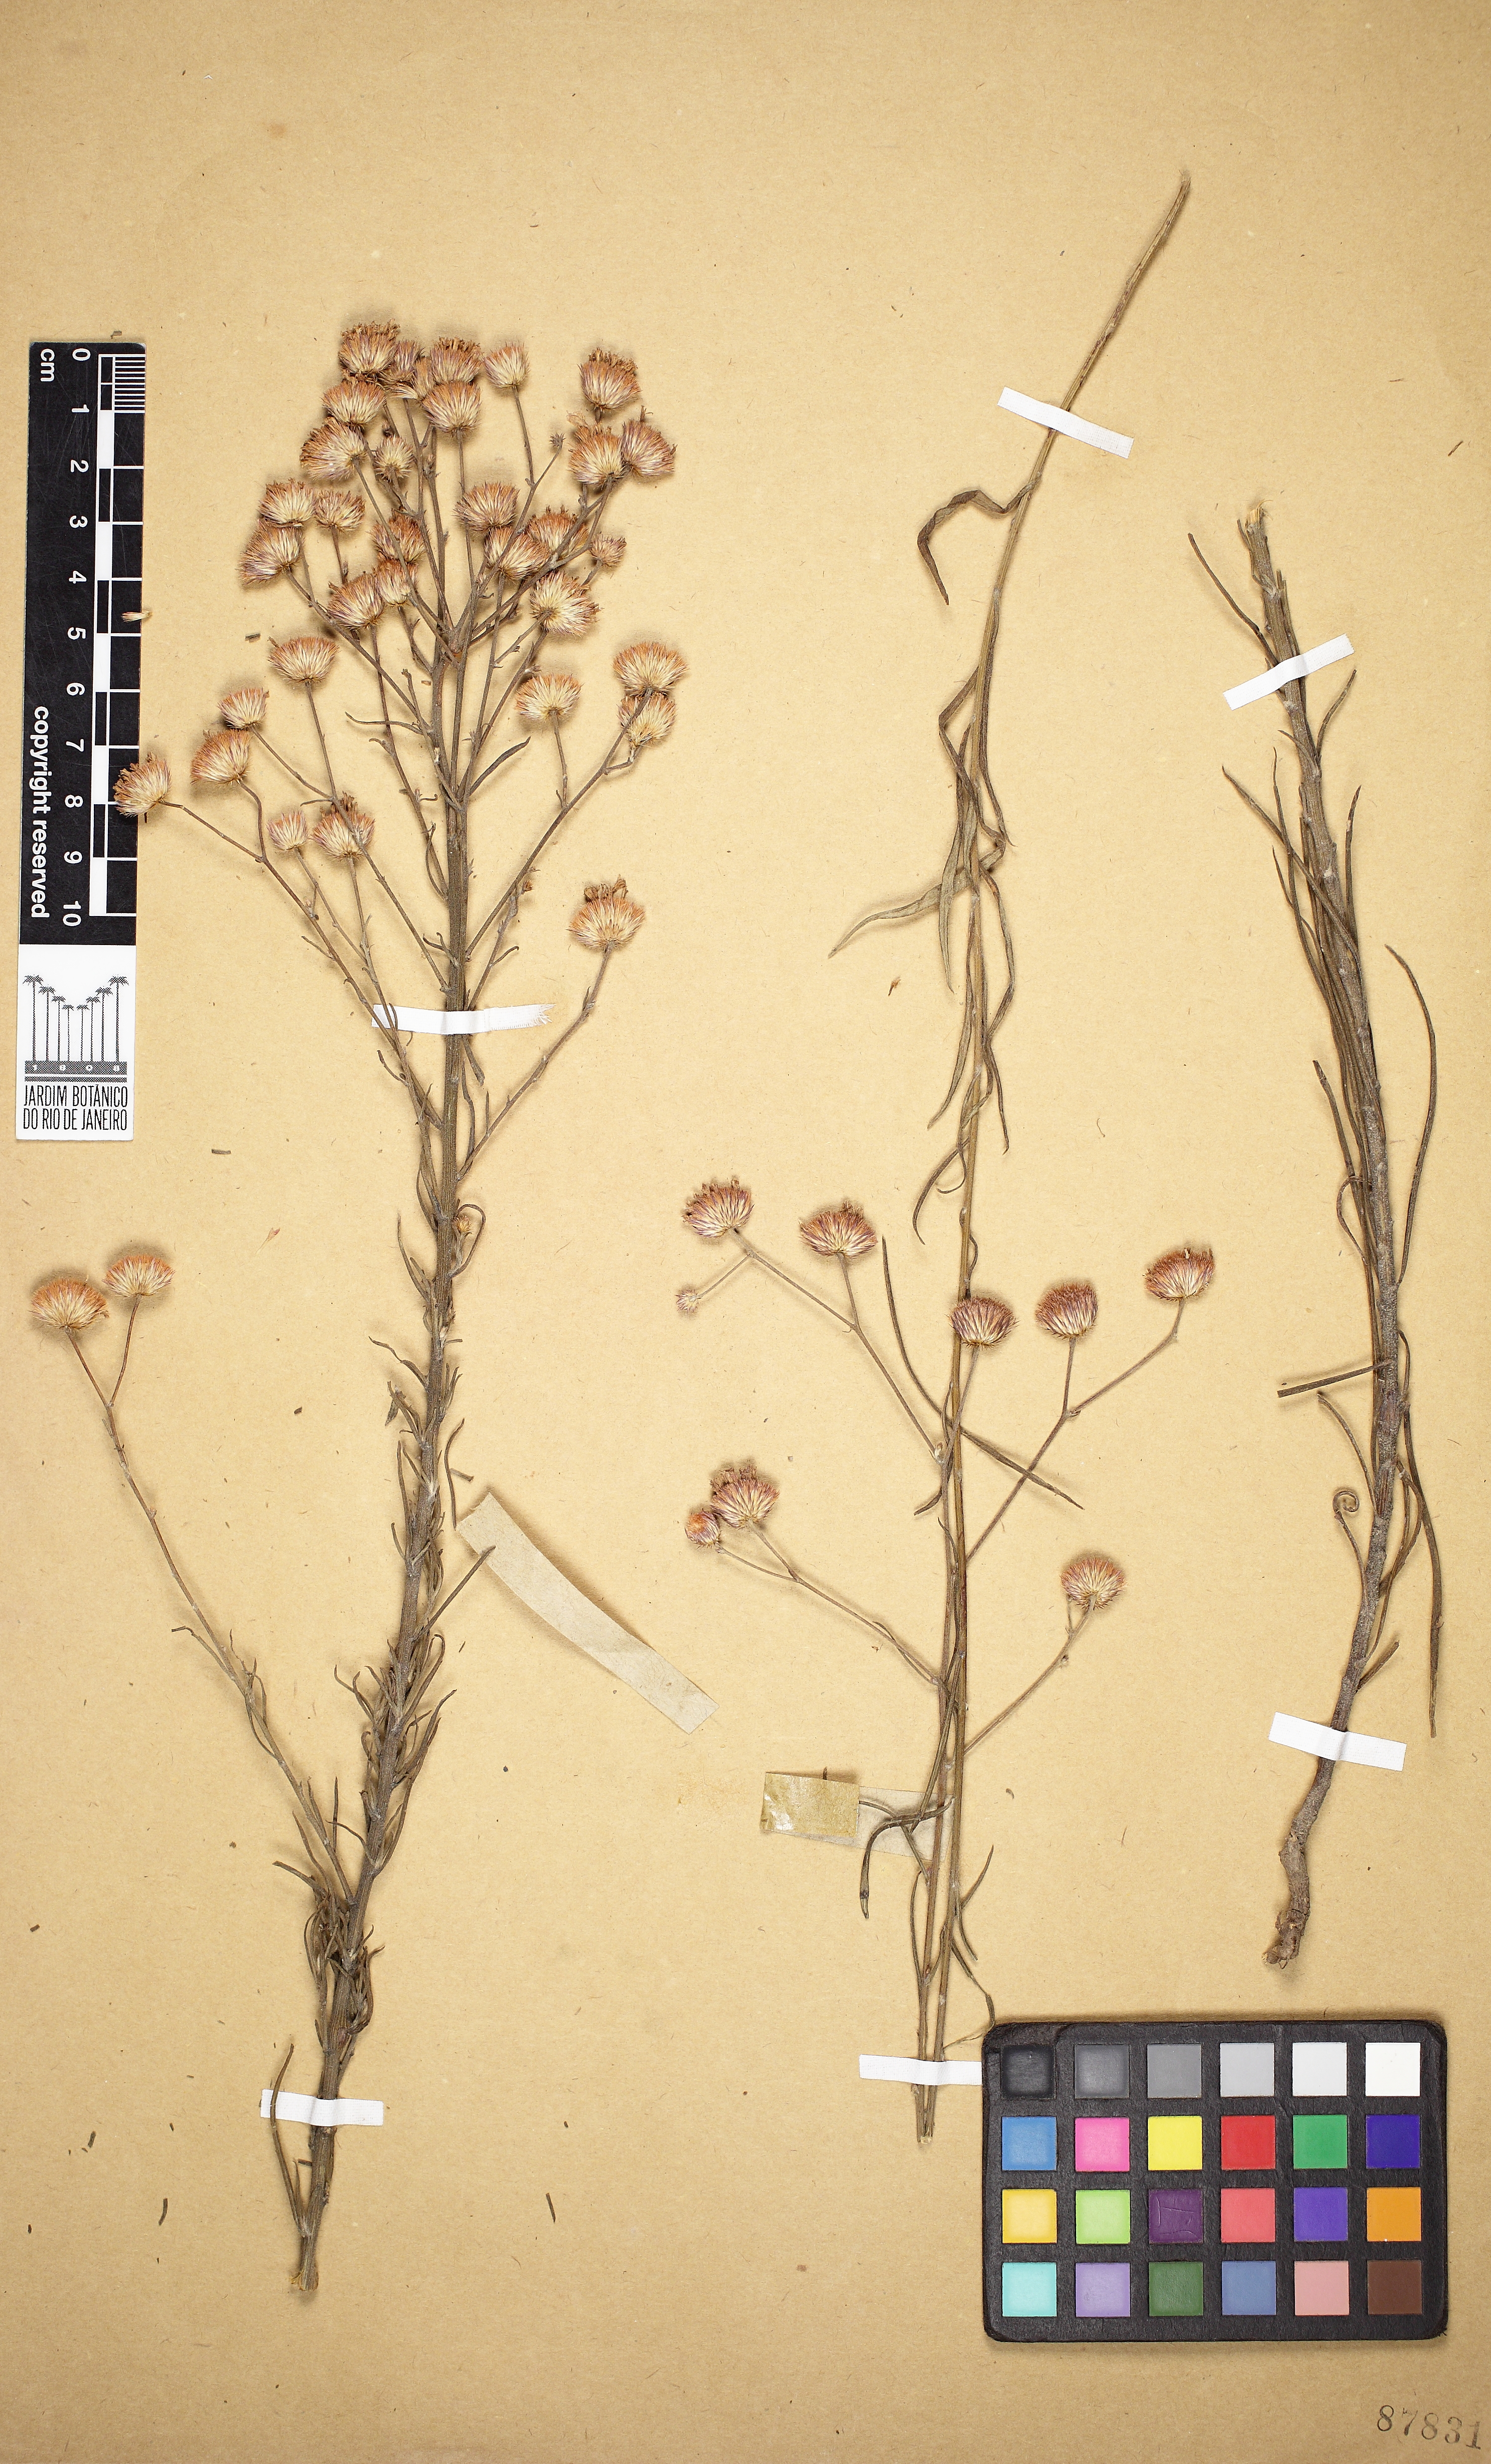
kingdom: Plantae
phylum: Tracheophyta
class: Magnoliopsida
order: Asterales
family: Asteraceae
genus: Echinocoryne
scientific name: Echinocoryne pungens
